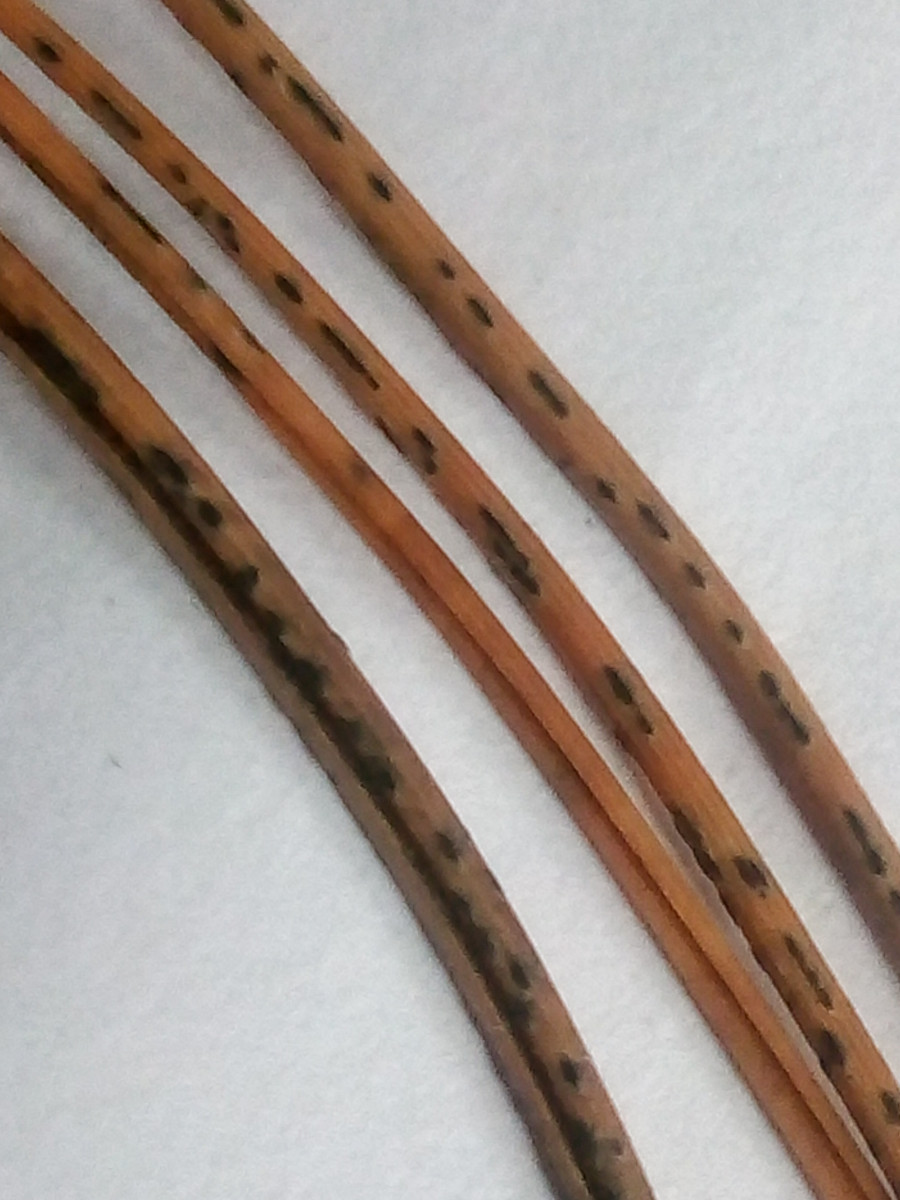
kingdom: Fungi
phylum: Ascomycota
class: Leotiomycetes
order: Rhytismatales
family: Rhytismataceae
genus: Meloderma
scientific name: Meloderma desmazieri
